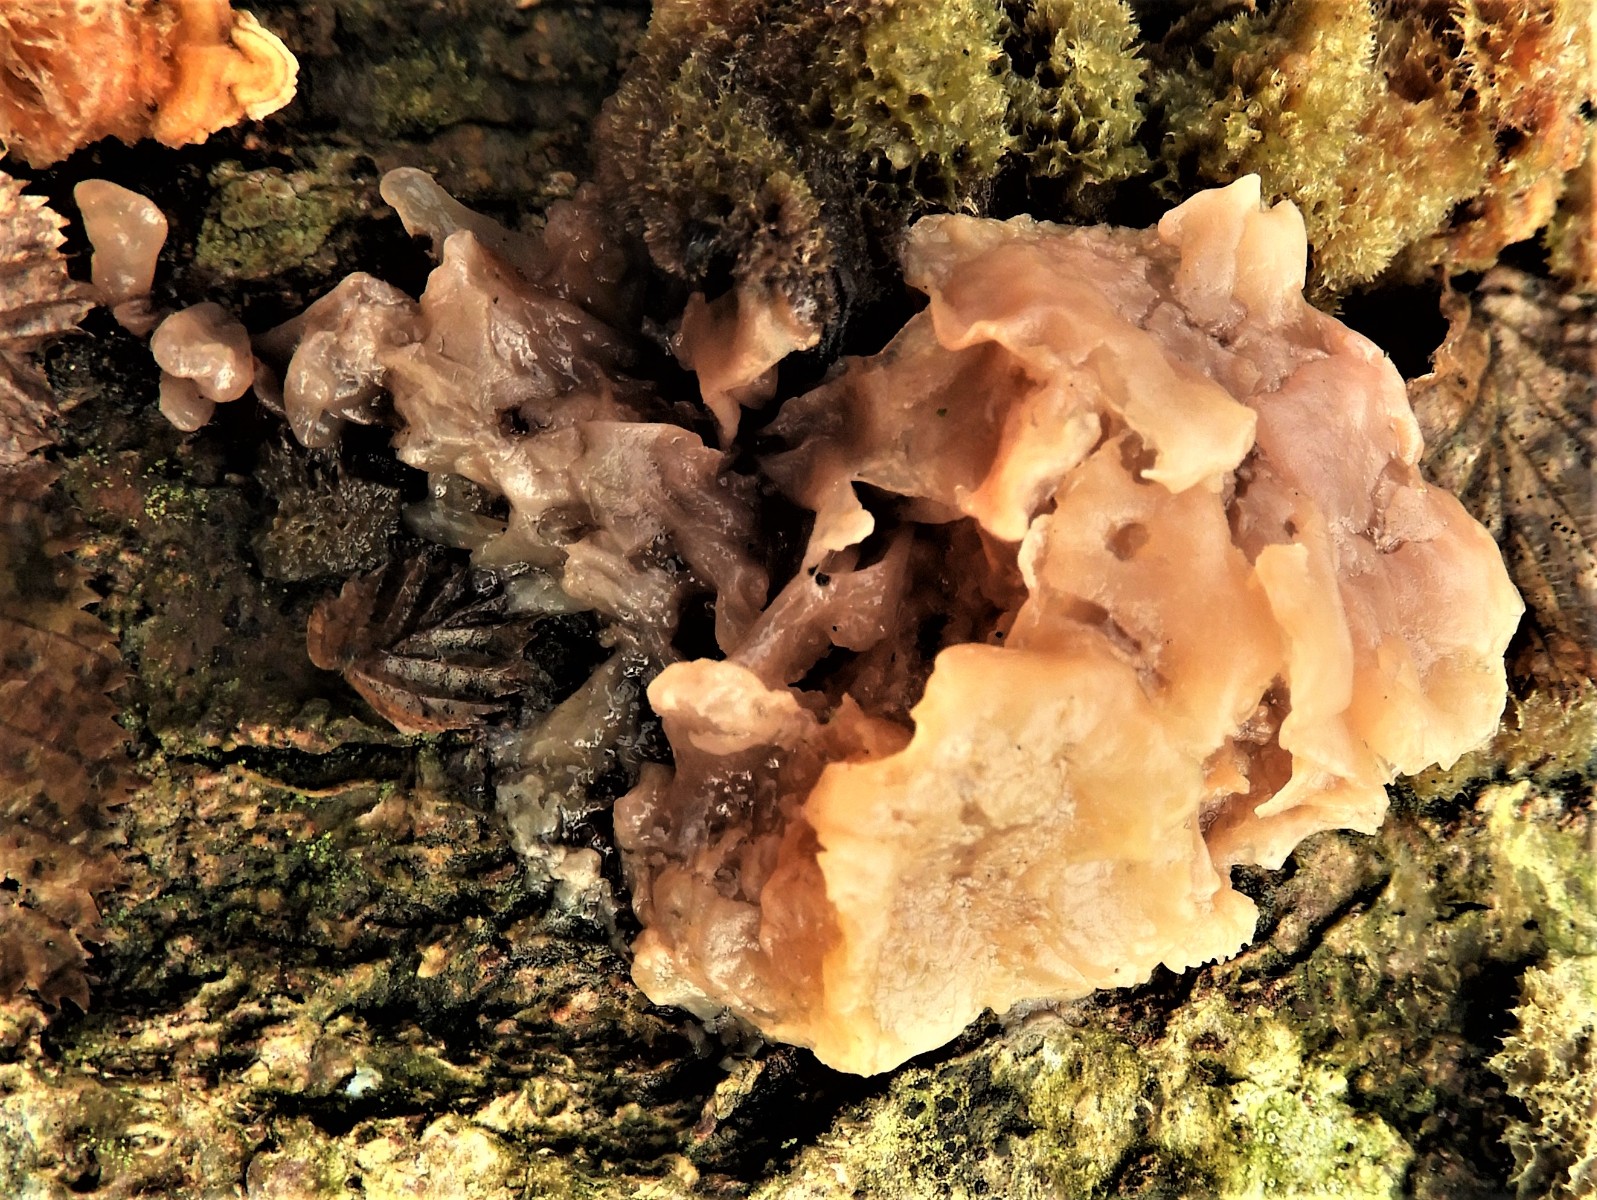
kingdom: Fungi
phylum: Ascomycota
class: Leotiomycetes
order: Helotiales
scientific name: Helotiales
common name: stilkskiveordenen
